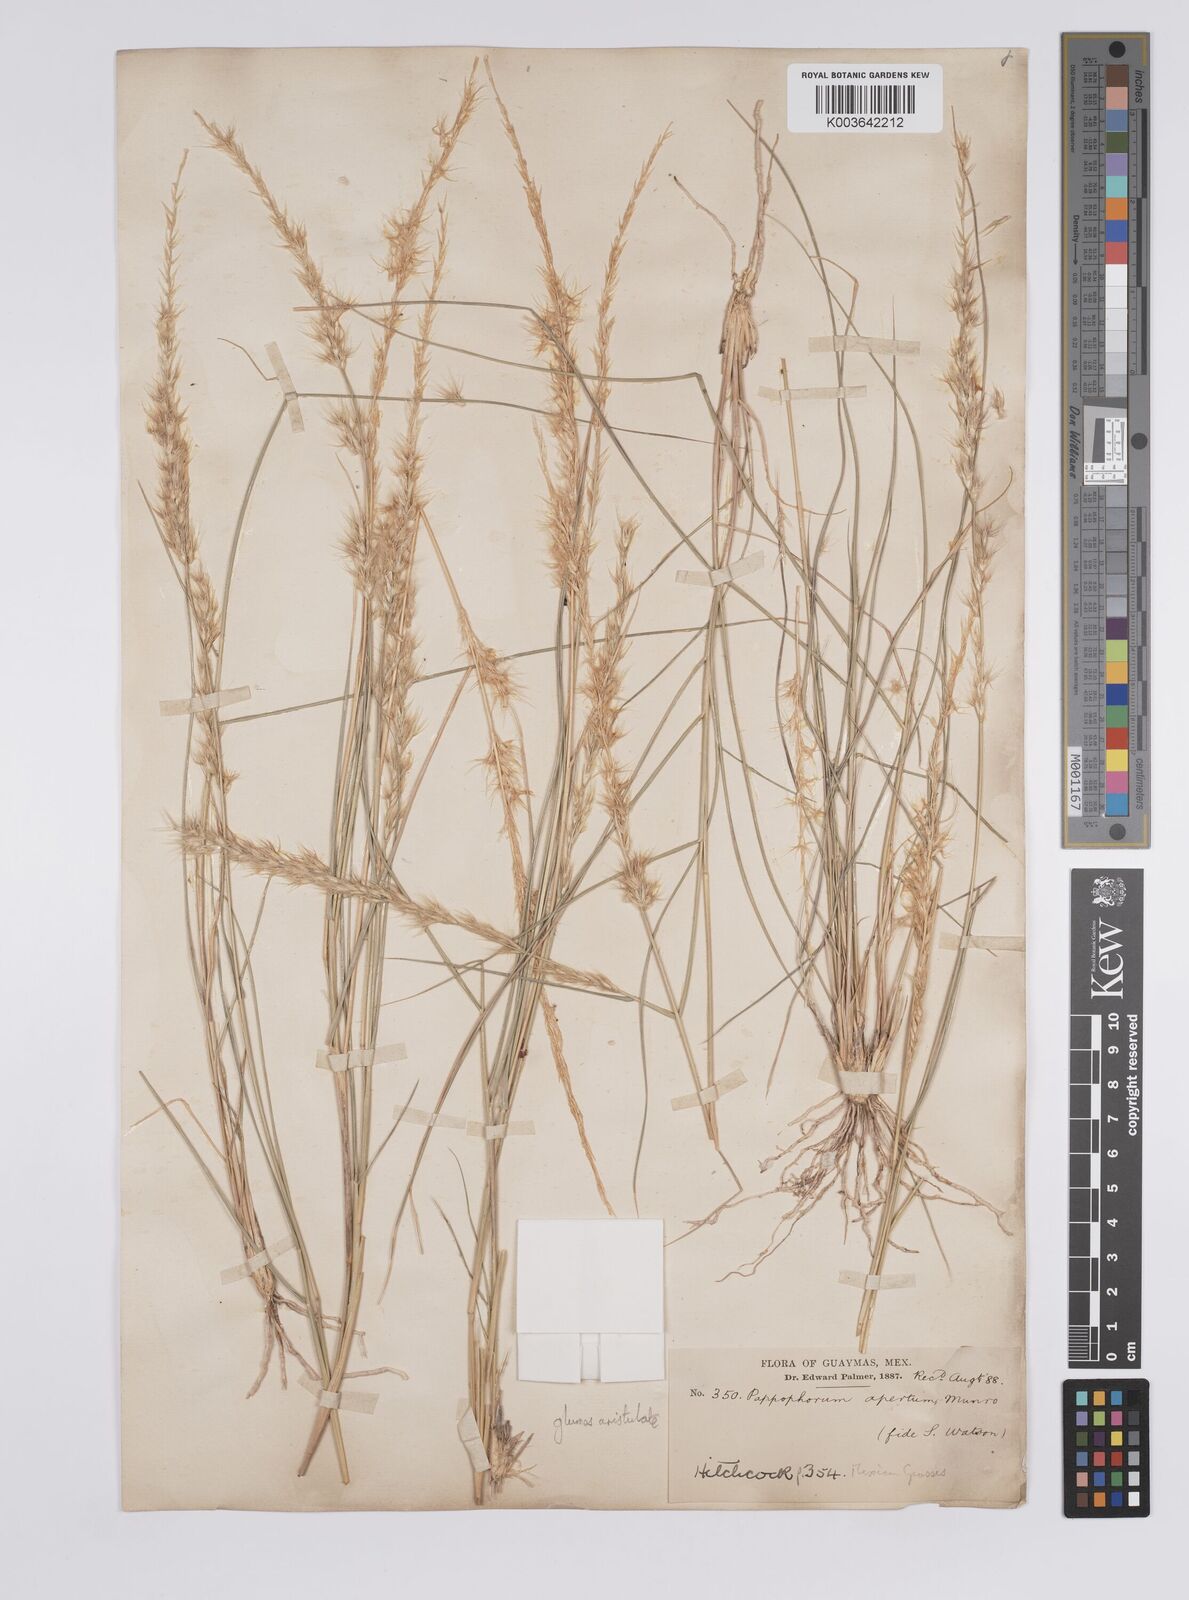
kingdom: Plantae
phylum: Tracheophyta
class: Liliopsida
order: Poales
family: Poaceae
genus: Pappophorum
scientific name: Pappophorum philippianum
